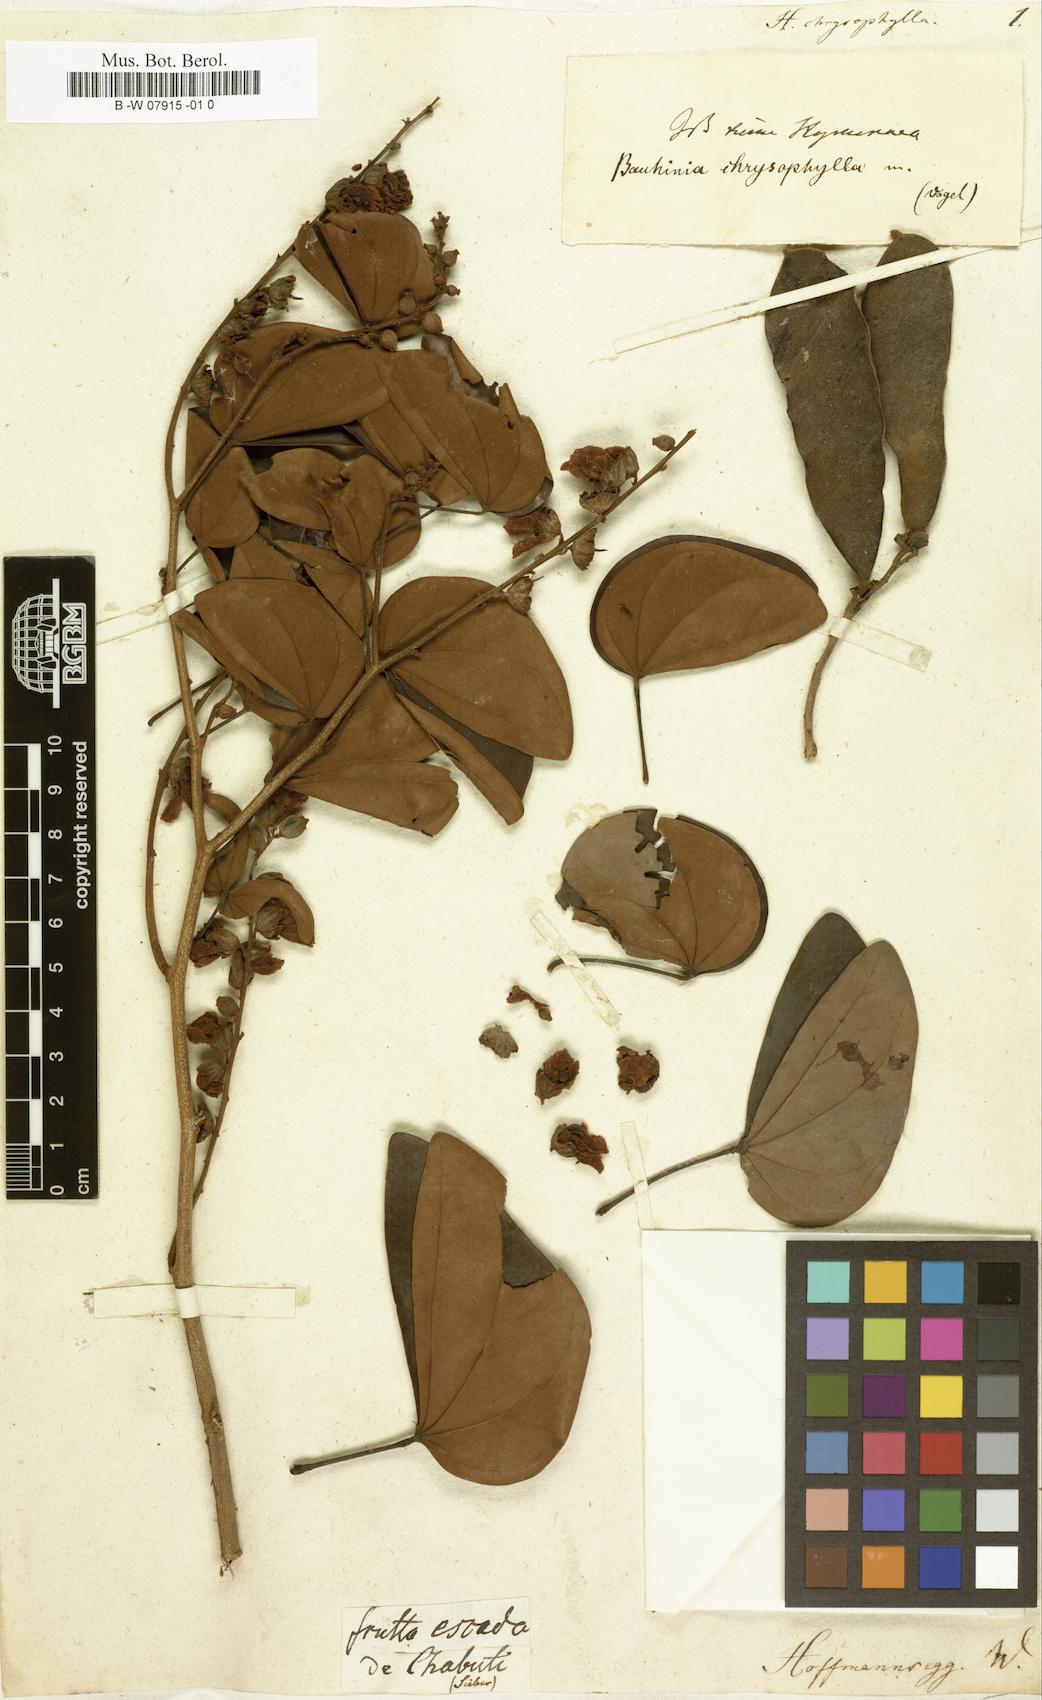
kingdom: Plantae
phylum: Tracheophyta
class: Magnoliopsida
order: Fabales
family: Fabaceae
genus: Schnella
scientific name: Schnella splendens
